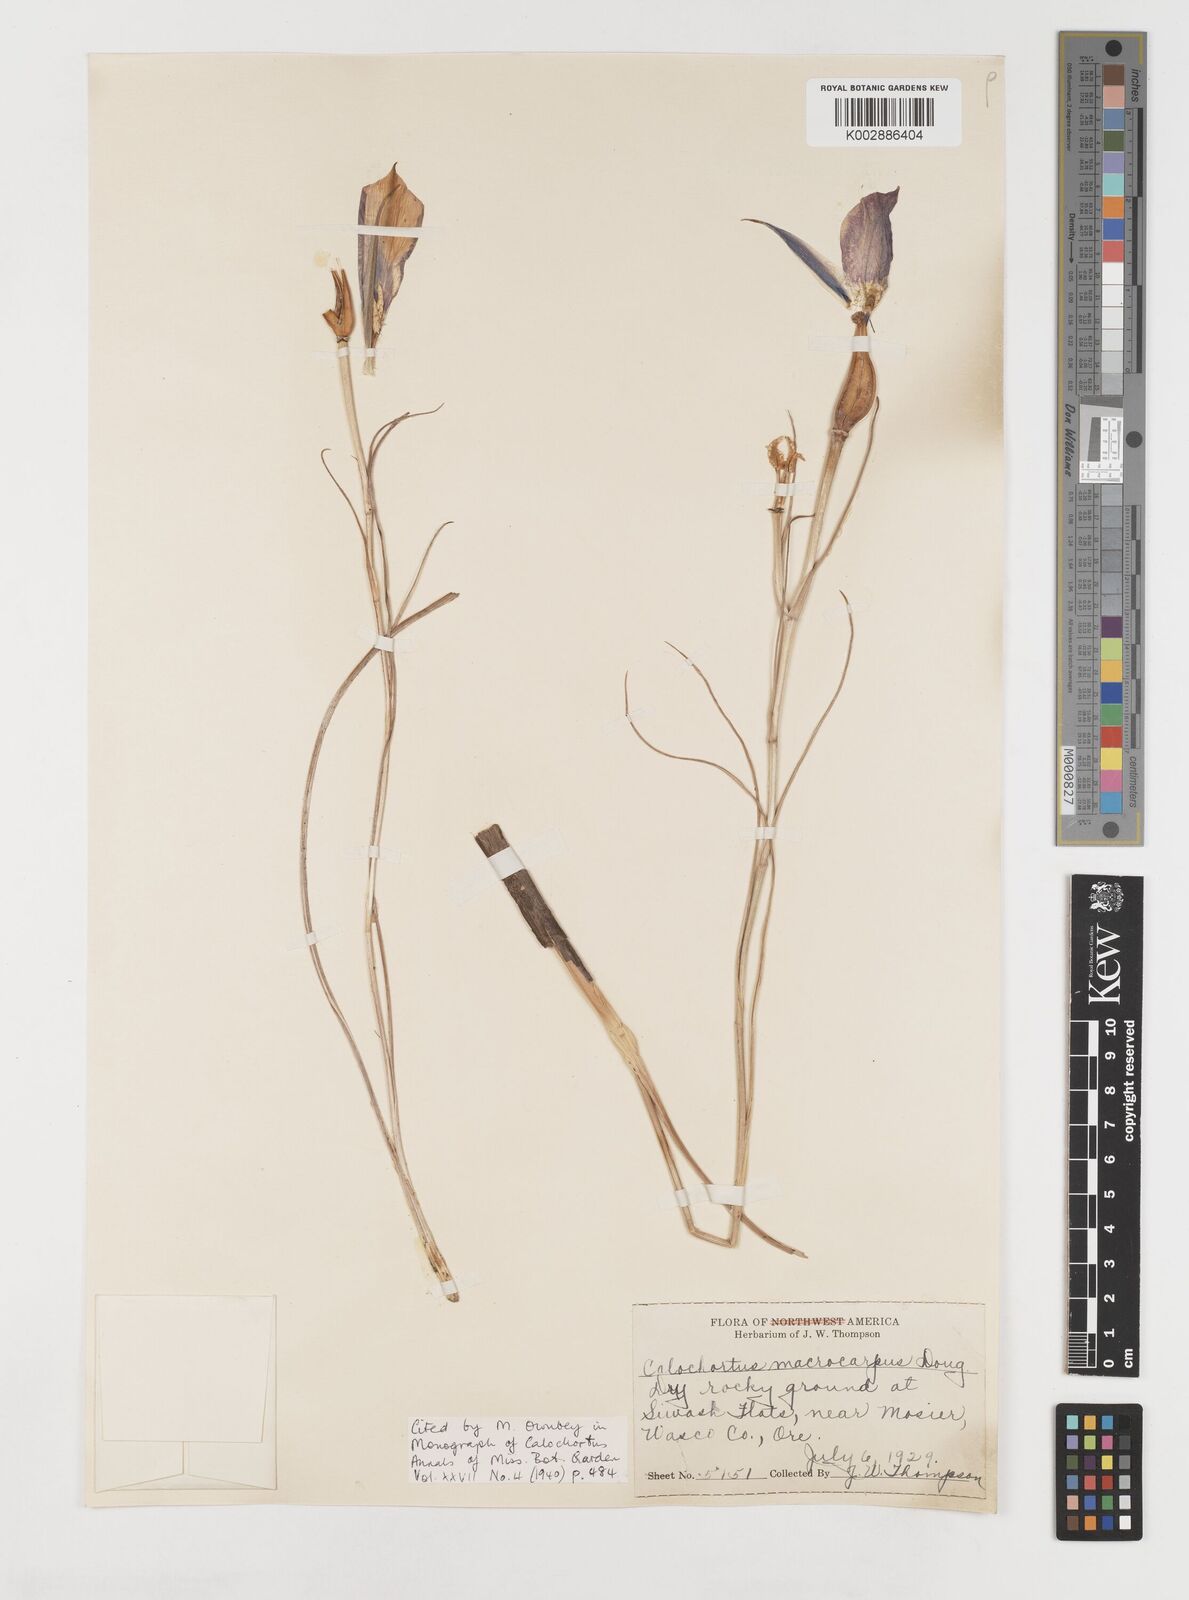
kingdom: Plantae
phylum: Tracheophyta
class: Liliopsida
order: Liliales
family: Liliaceae
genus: Calochortus
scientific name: Calochortus macrocarpus
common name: Green-band mariposa lily
